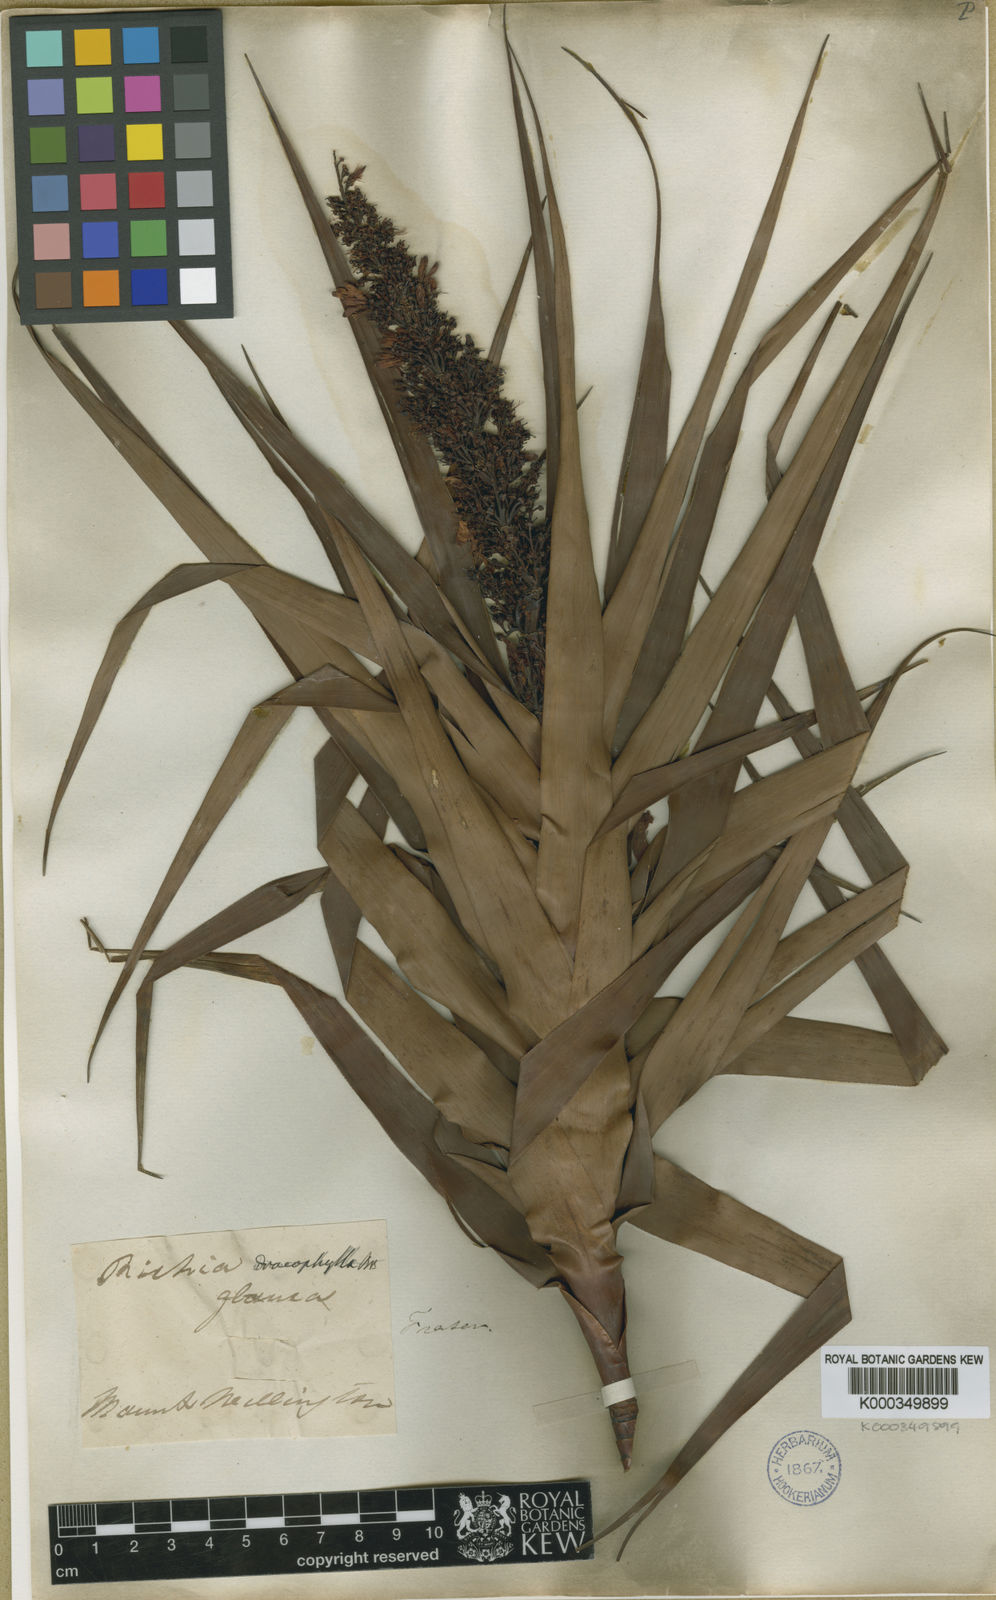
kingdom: Plantae
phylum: Tracheophyta
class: Magnoliopsida
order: Ericales
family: Ericaceae
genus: Dracophyllum
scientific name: Dracophyllum desgrazii
